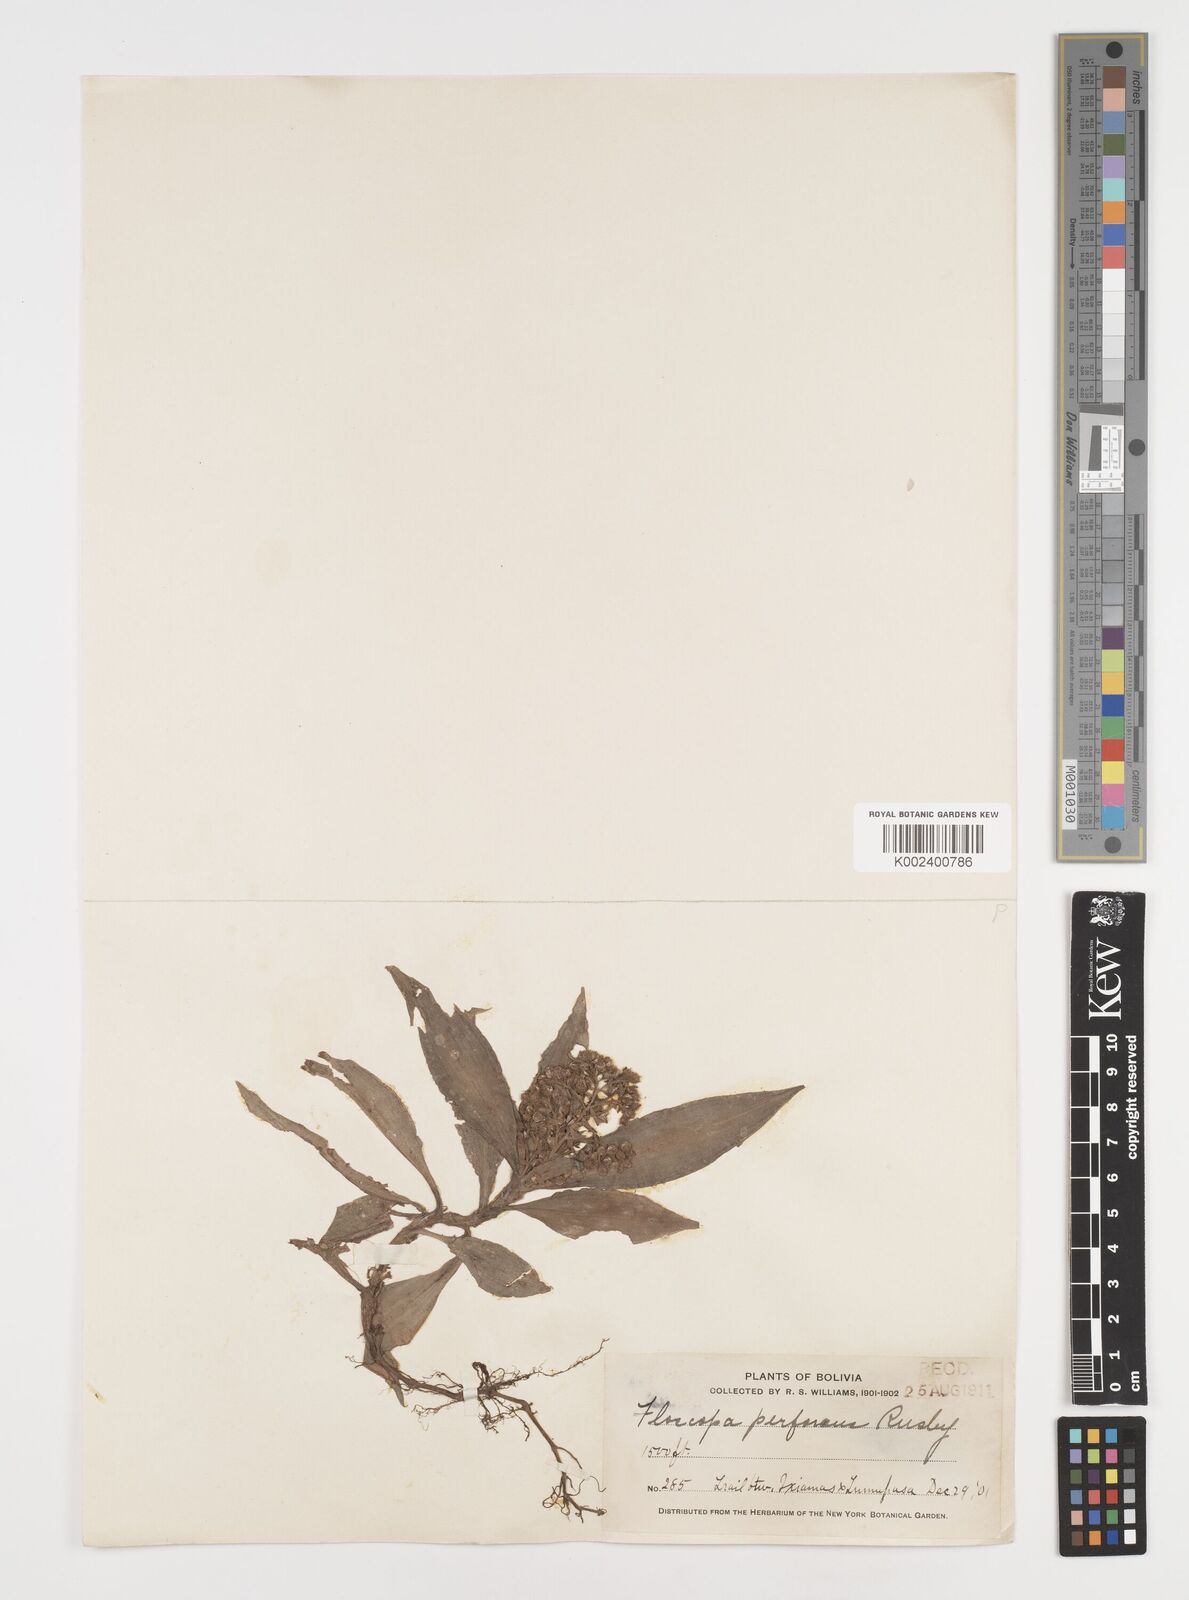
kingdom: Plantae
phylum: Tracheophyta
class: Liliopsida
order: Commelinales
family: Commelinaceae
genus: Floscopa
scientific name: Floscopa perforans
